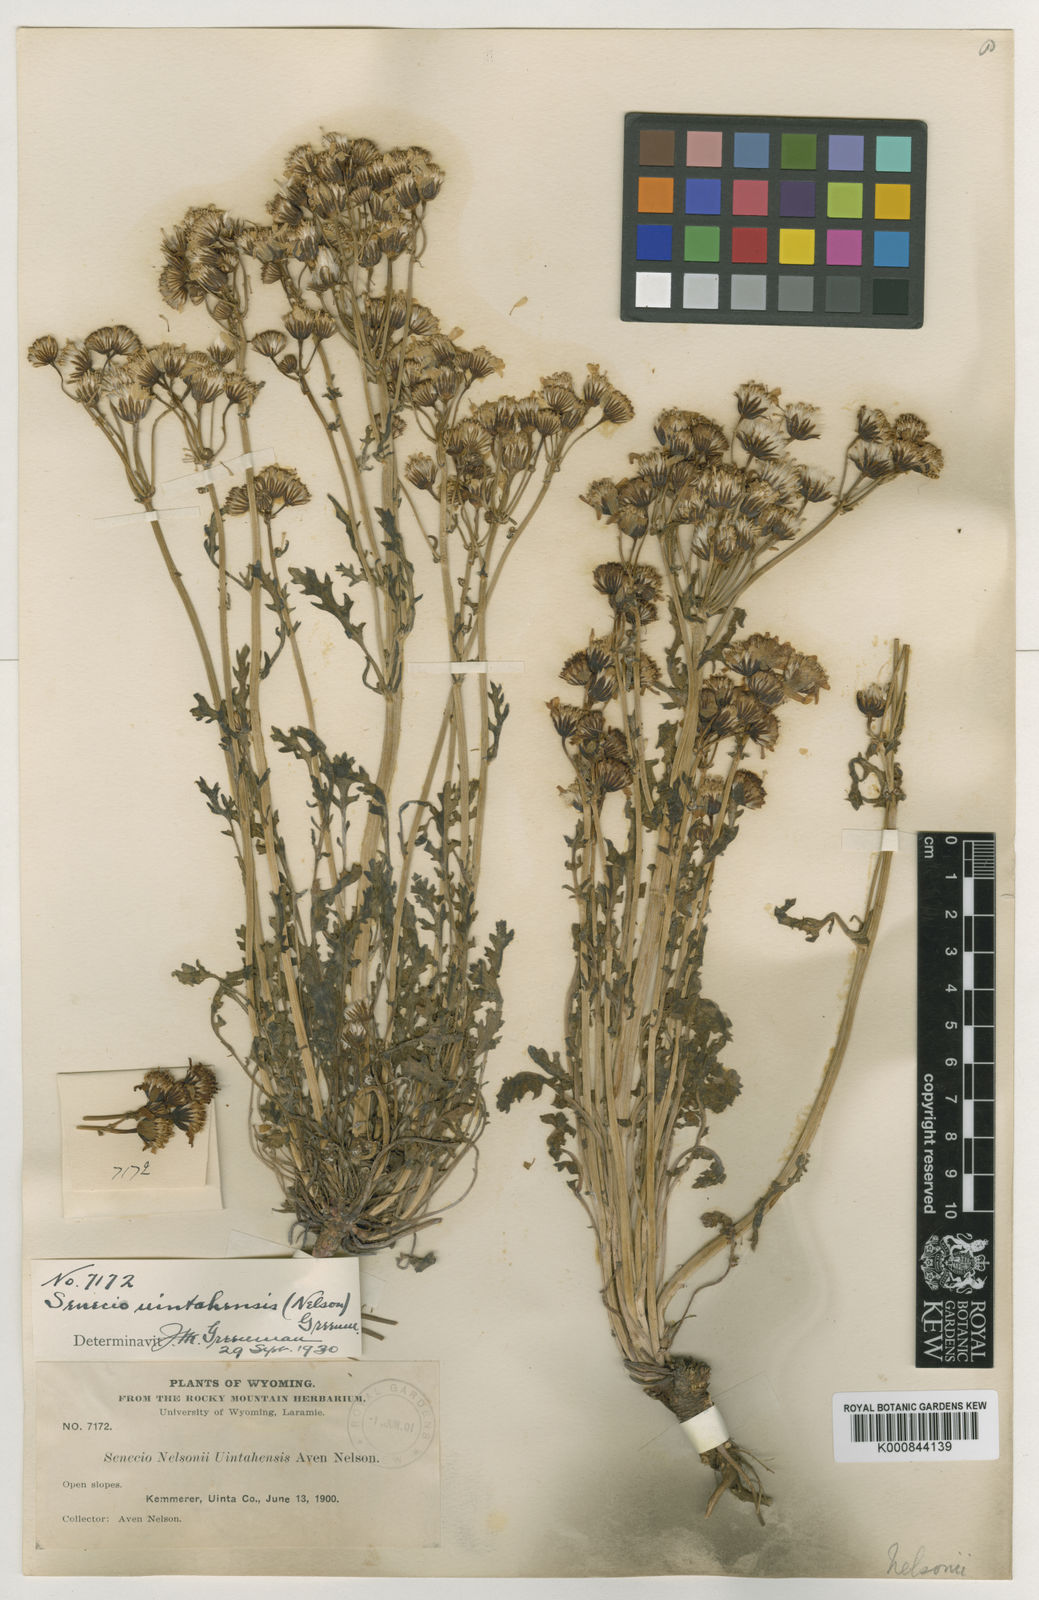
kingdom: Plantae
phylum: Tracheophyta
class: Magnoliopsida
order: Asterales
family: Asteraceae
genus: Packera
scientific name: Packera
